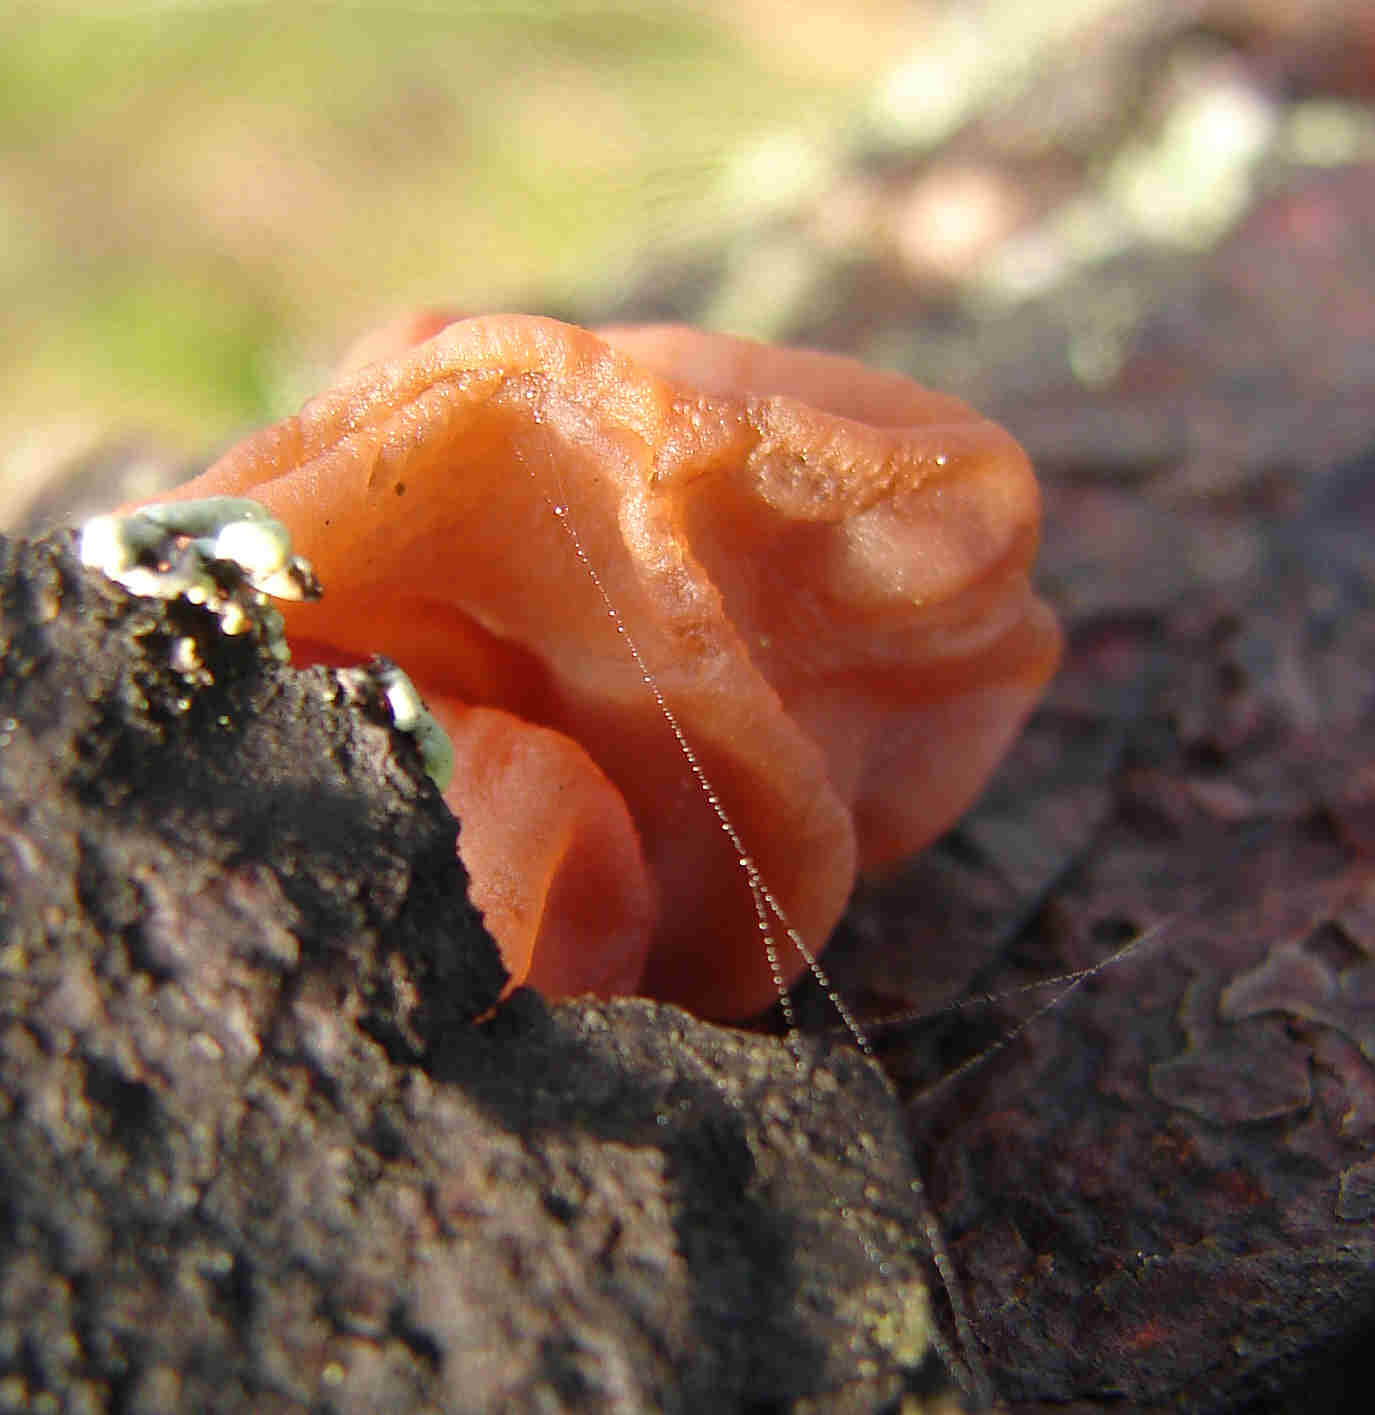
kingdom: Fungi
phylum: Basidiomycota
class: Agaricomycetes
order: Auriculariales
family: Auriculariaceae
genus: Exidia
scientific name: Exidia saccharina
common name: kandis-bævretop
